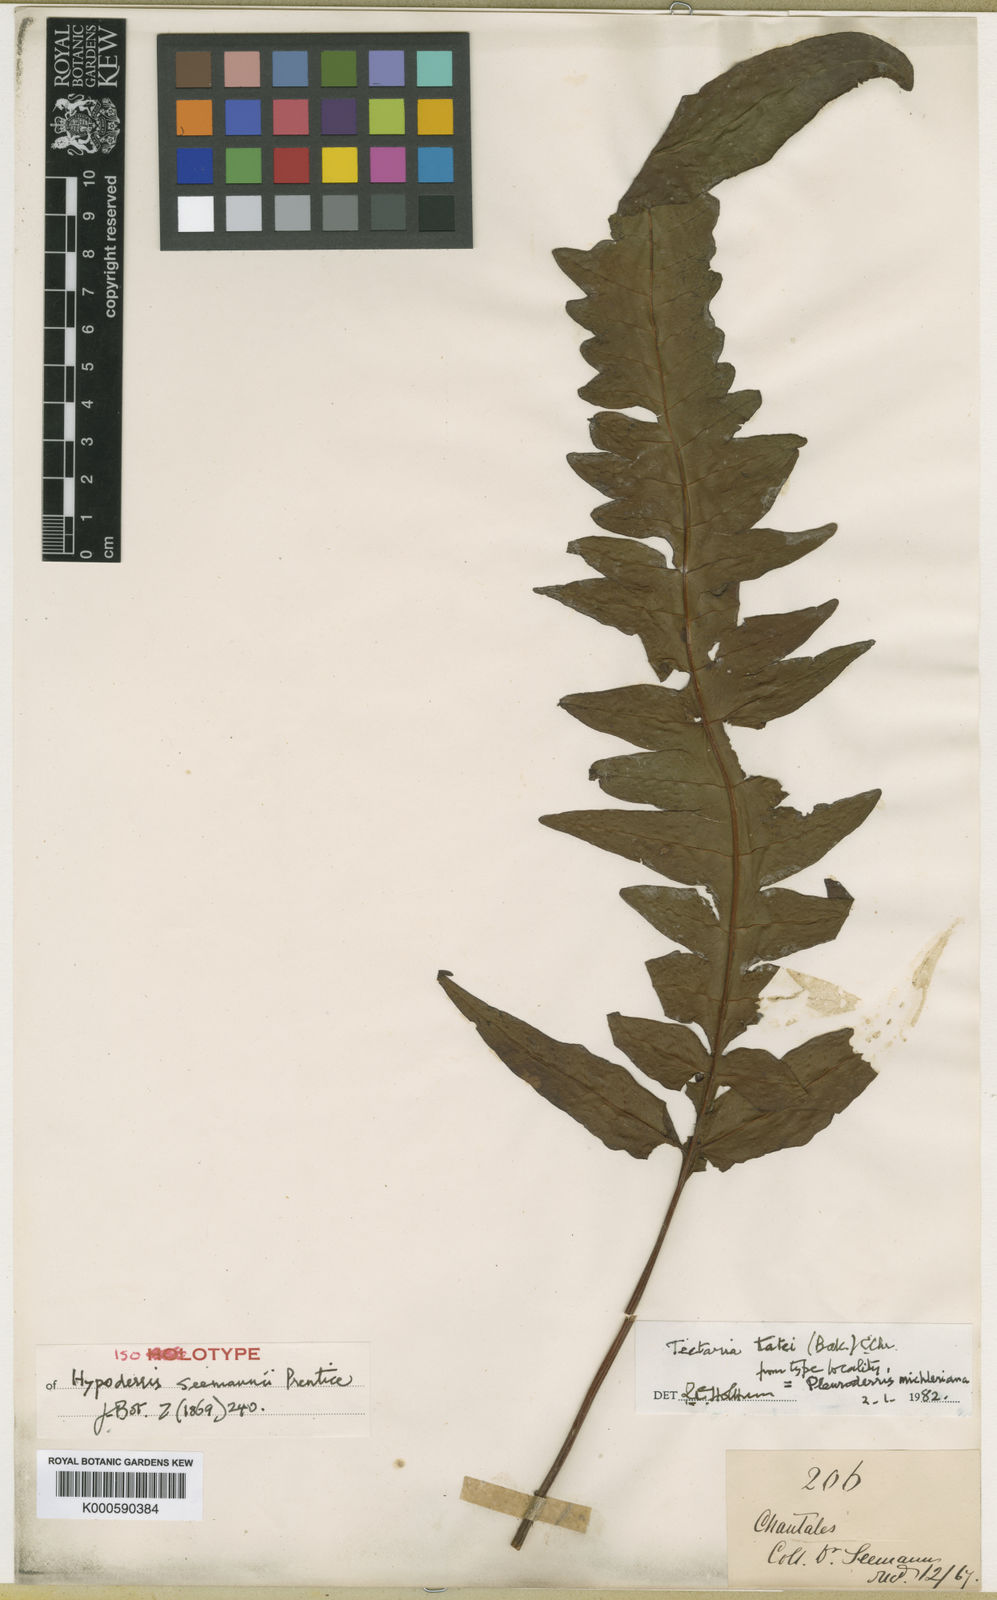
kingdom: Plantae
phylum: Tracheophyta
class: Polypodiopsida
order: Polypodiales
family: Tectariaceae
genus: Tectaria
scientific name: Tectaria michleriana
